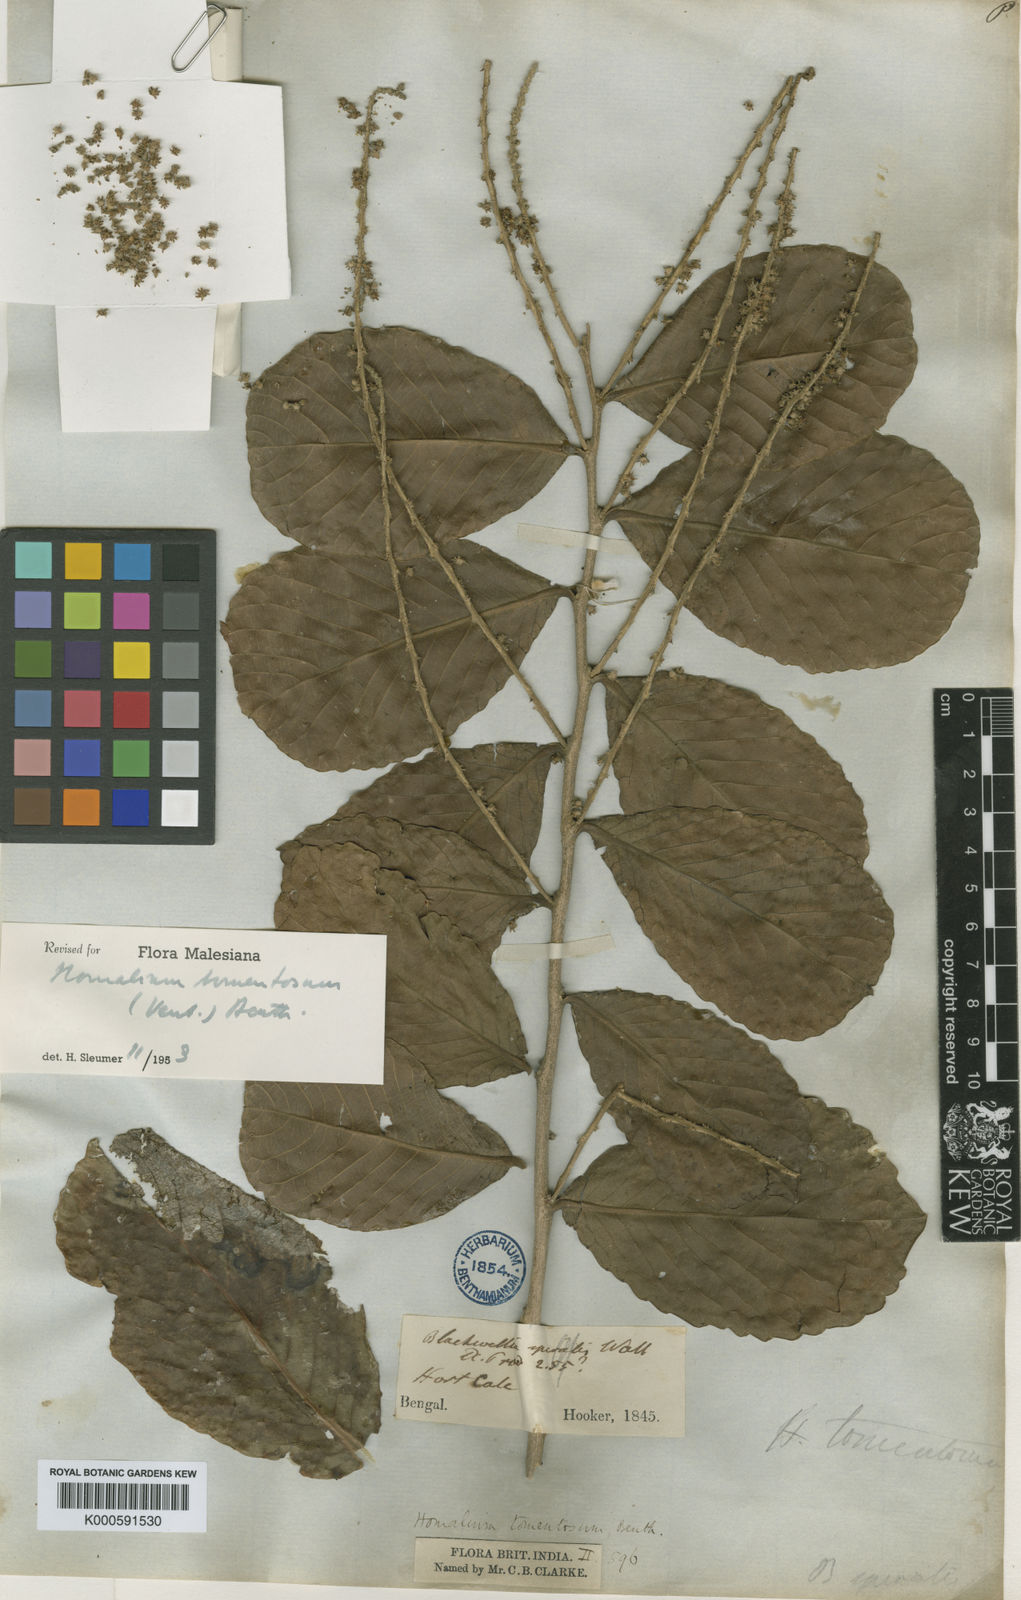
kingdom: Plantae
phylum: Tracheophyta
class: Magnoliopsida
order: Malpighiales
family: Salicaceae
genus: Homalium
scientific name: Homalium tomentosum
